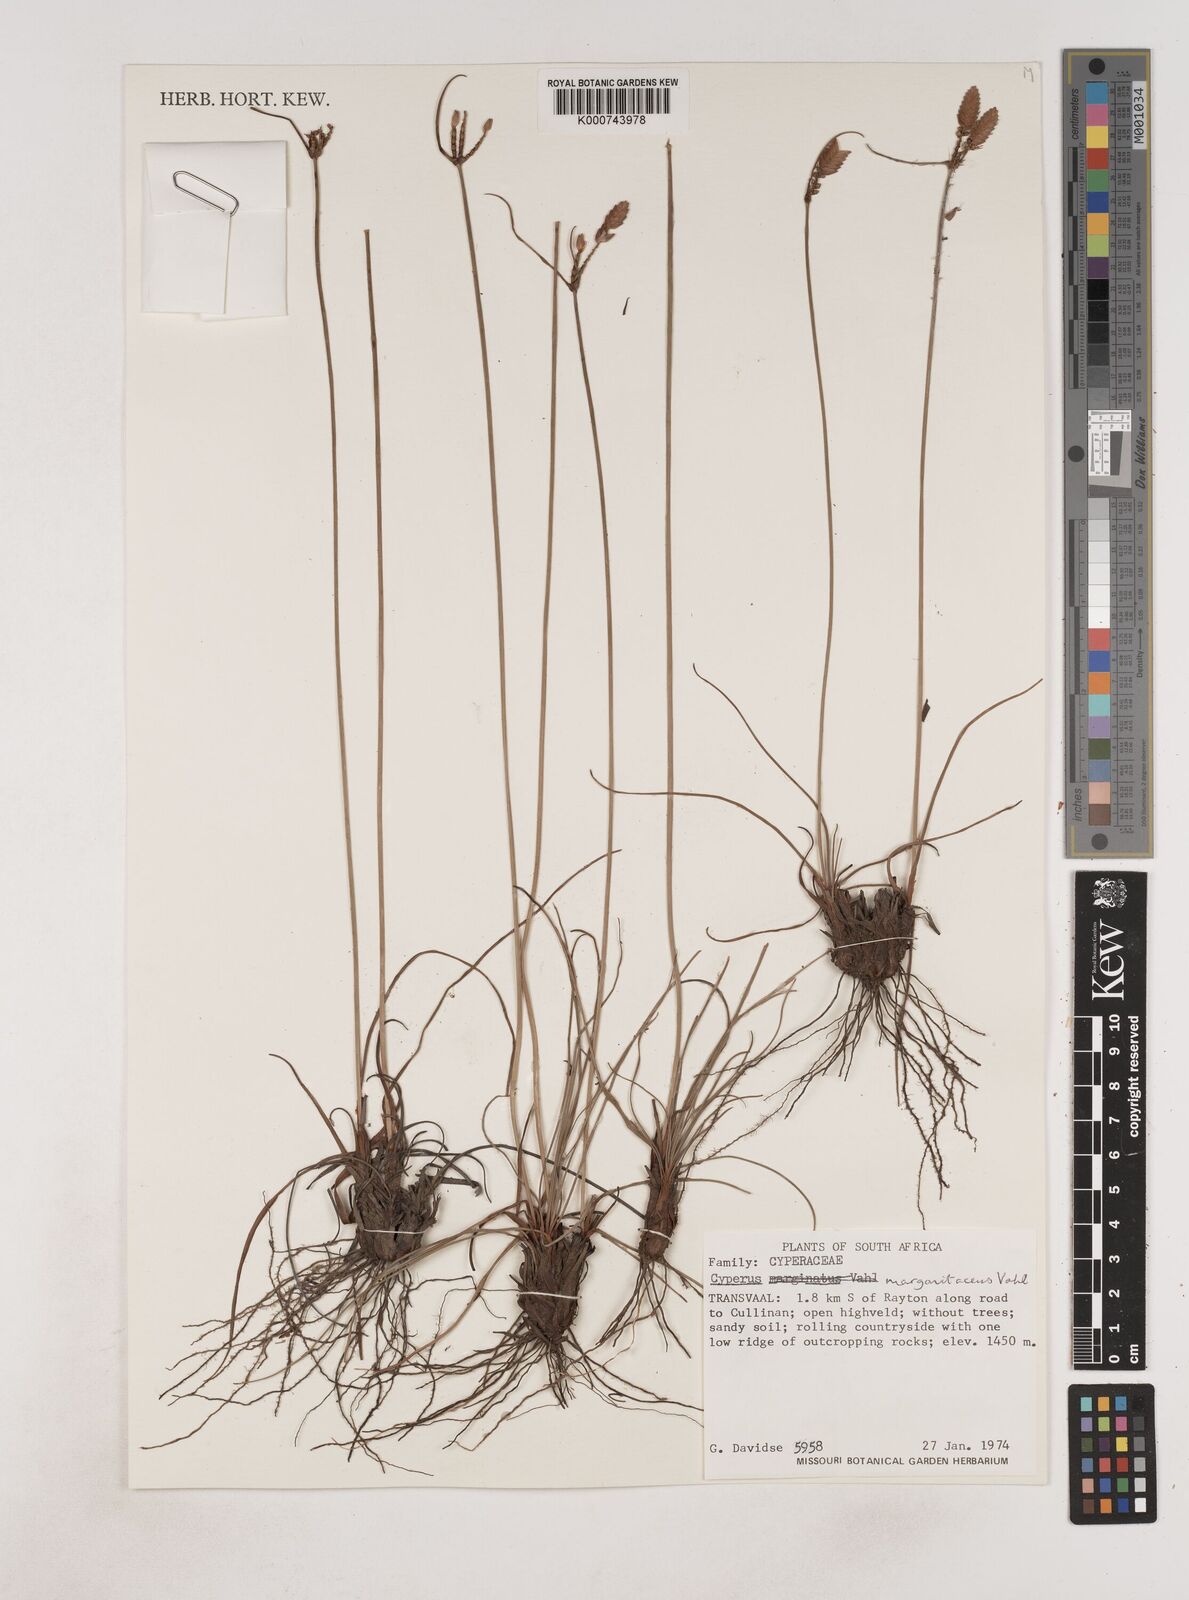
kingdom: Plantae
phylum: Tracheophyta
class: Liliopsida
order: Poales
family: Cyperaceae
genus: Cyperus
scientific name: Cyperus margaritaceus
